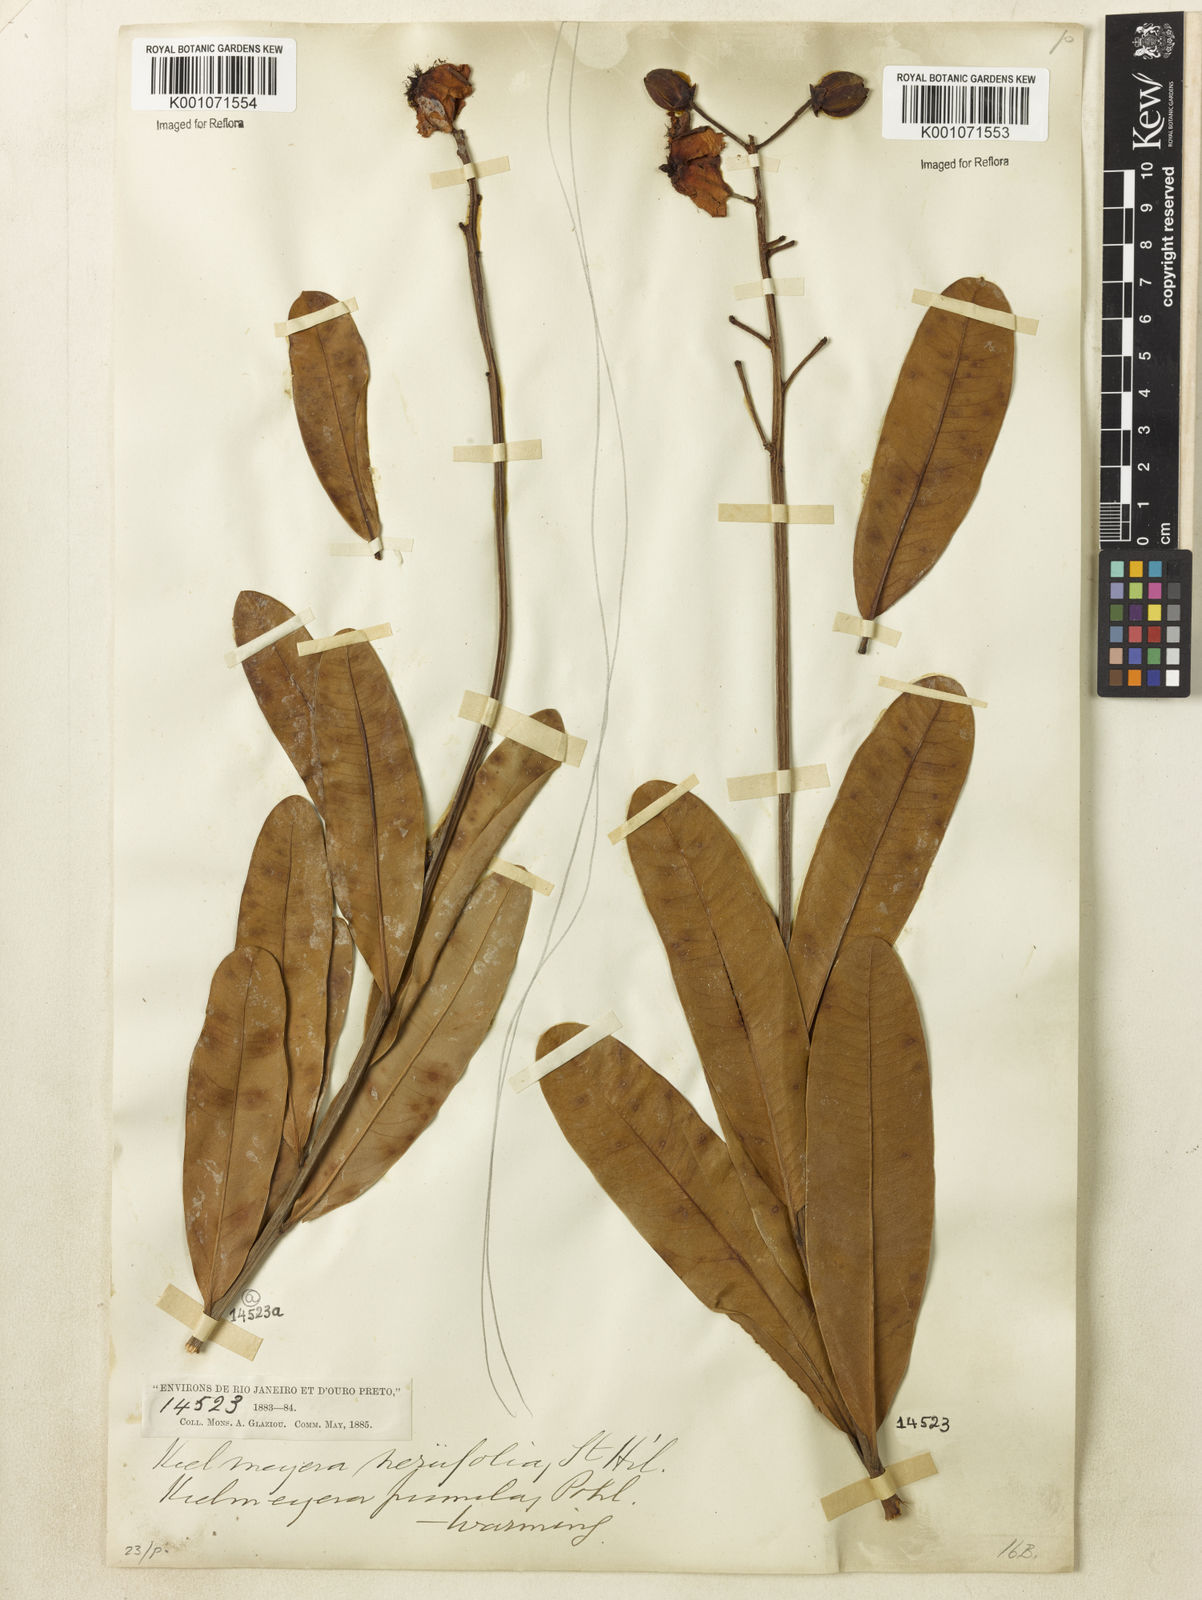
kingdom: Plantae
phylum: Tracheophyta
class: Magnoliopsida
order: Malpighiales
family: Calophyllaceae
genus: Kielmeyera
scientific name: Kielmeyera pumila
